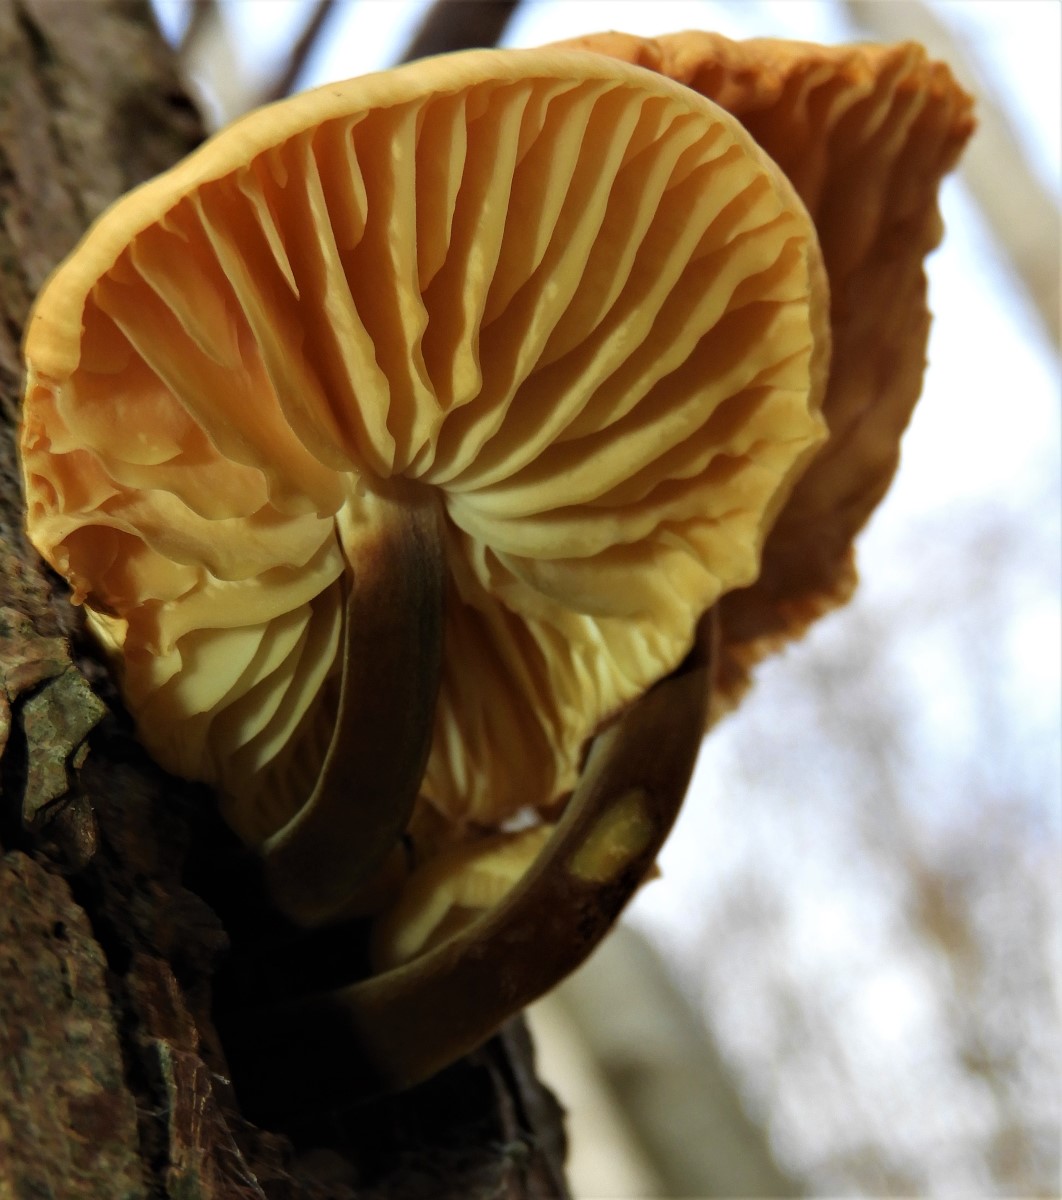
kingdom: Fungi
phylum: Basidiomycota
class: Agaricomycetes
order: Agaricales
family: Physalacriaceae
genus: Flammulina
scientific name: Flammulina
